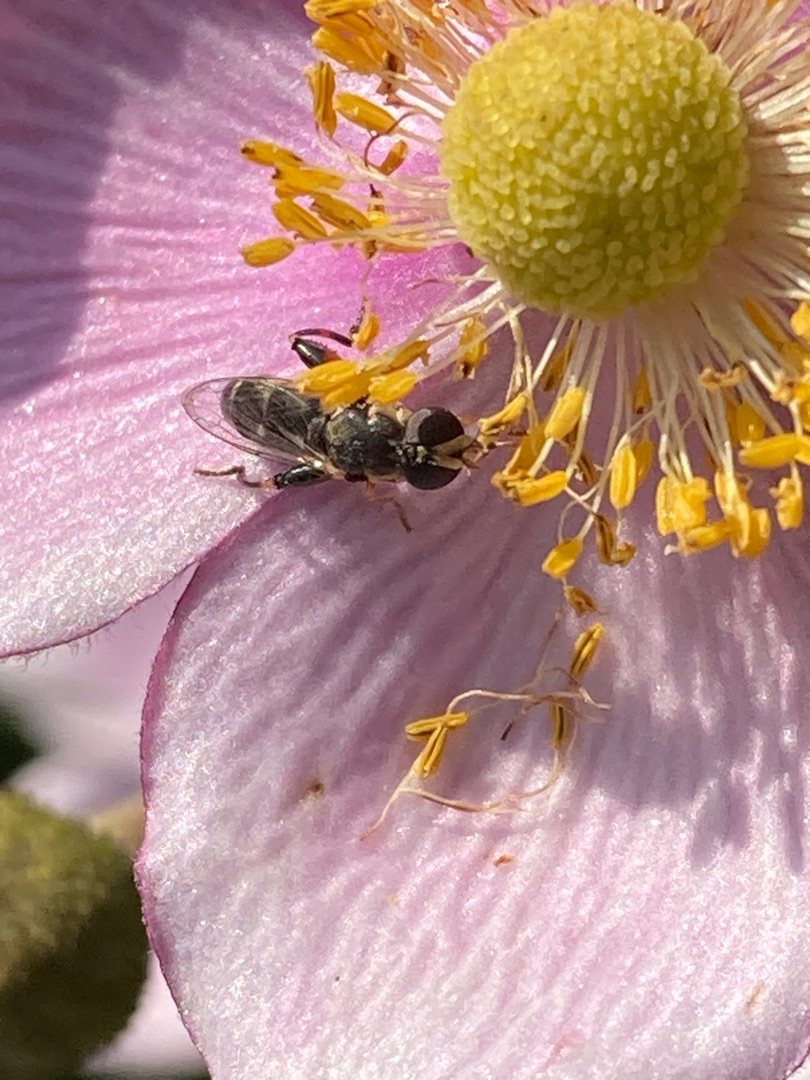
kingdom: Animalia
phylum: Arthropoda
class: Insecta
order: Diptera
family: Syrphidae
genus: Syritta
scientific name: Syritta pipiens
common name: Kompost-svirreflue
